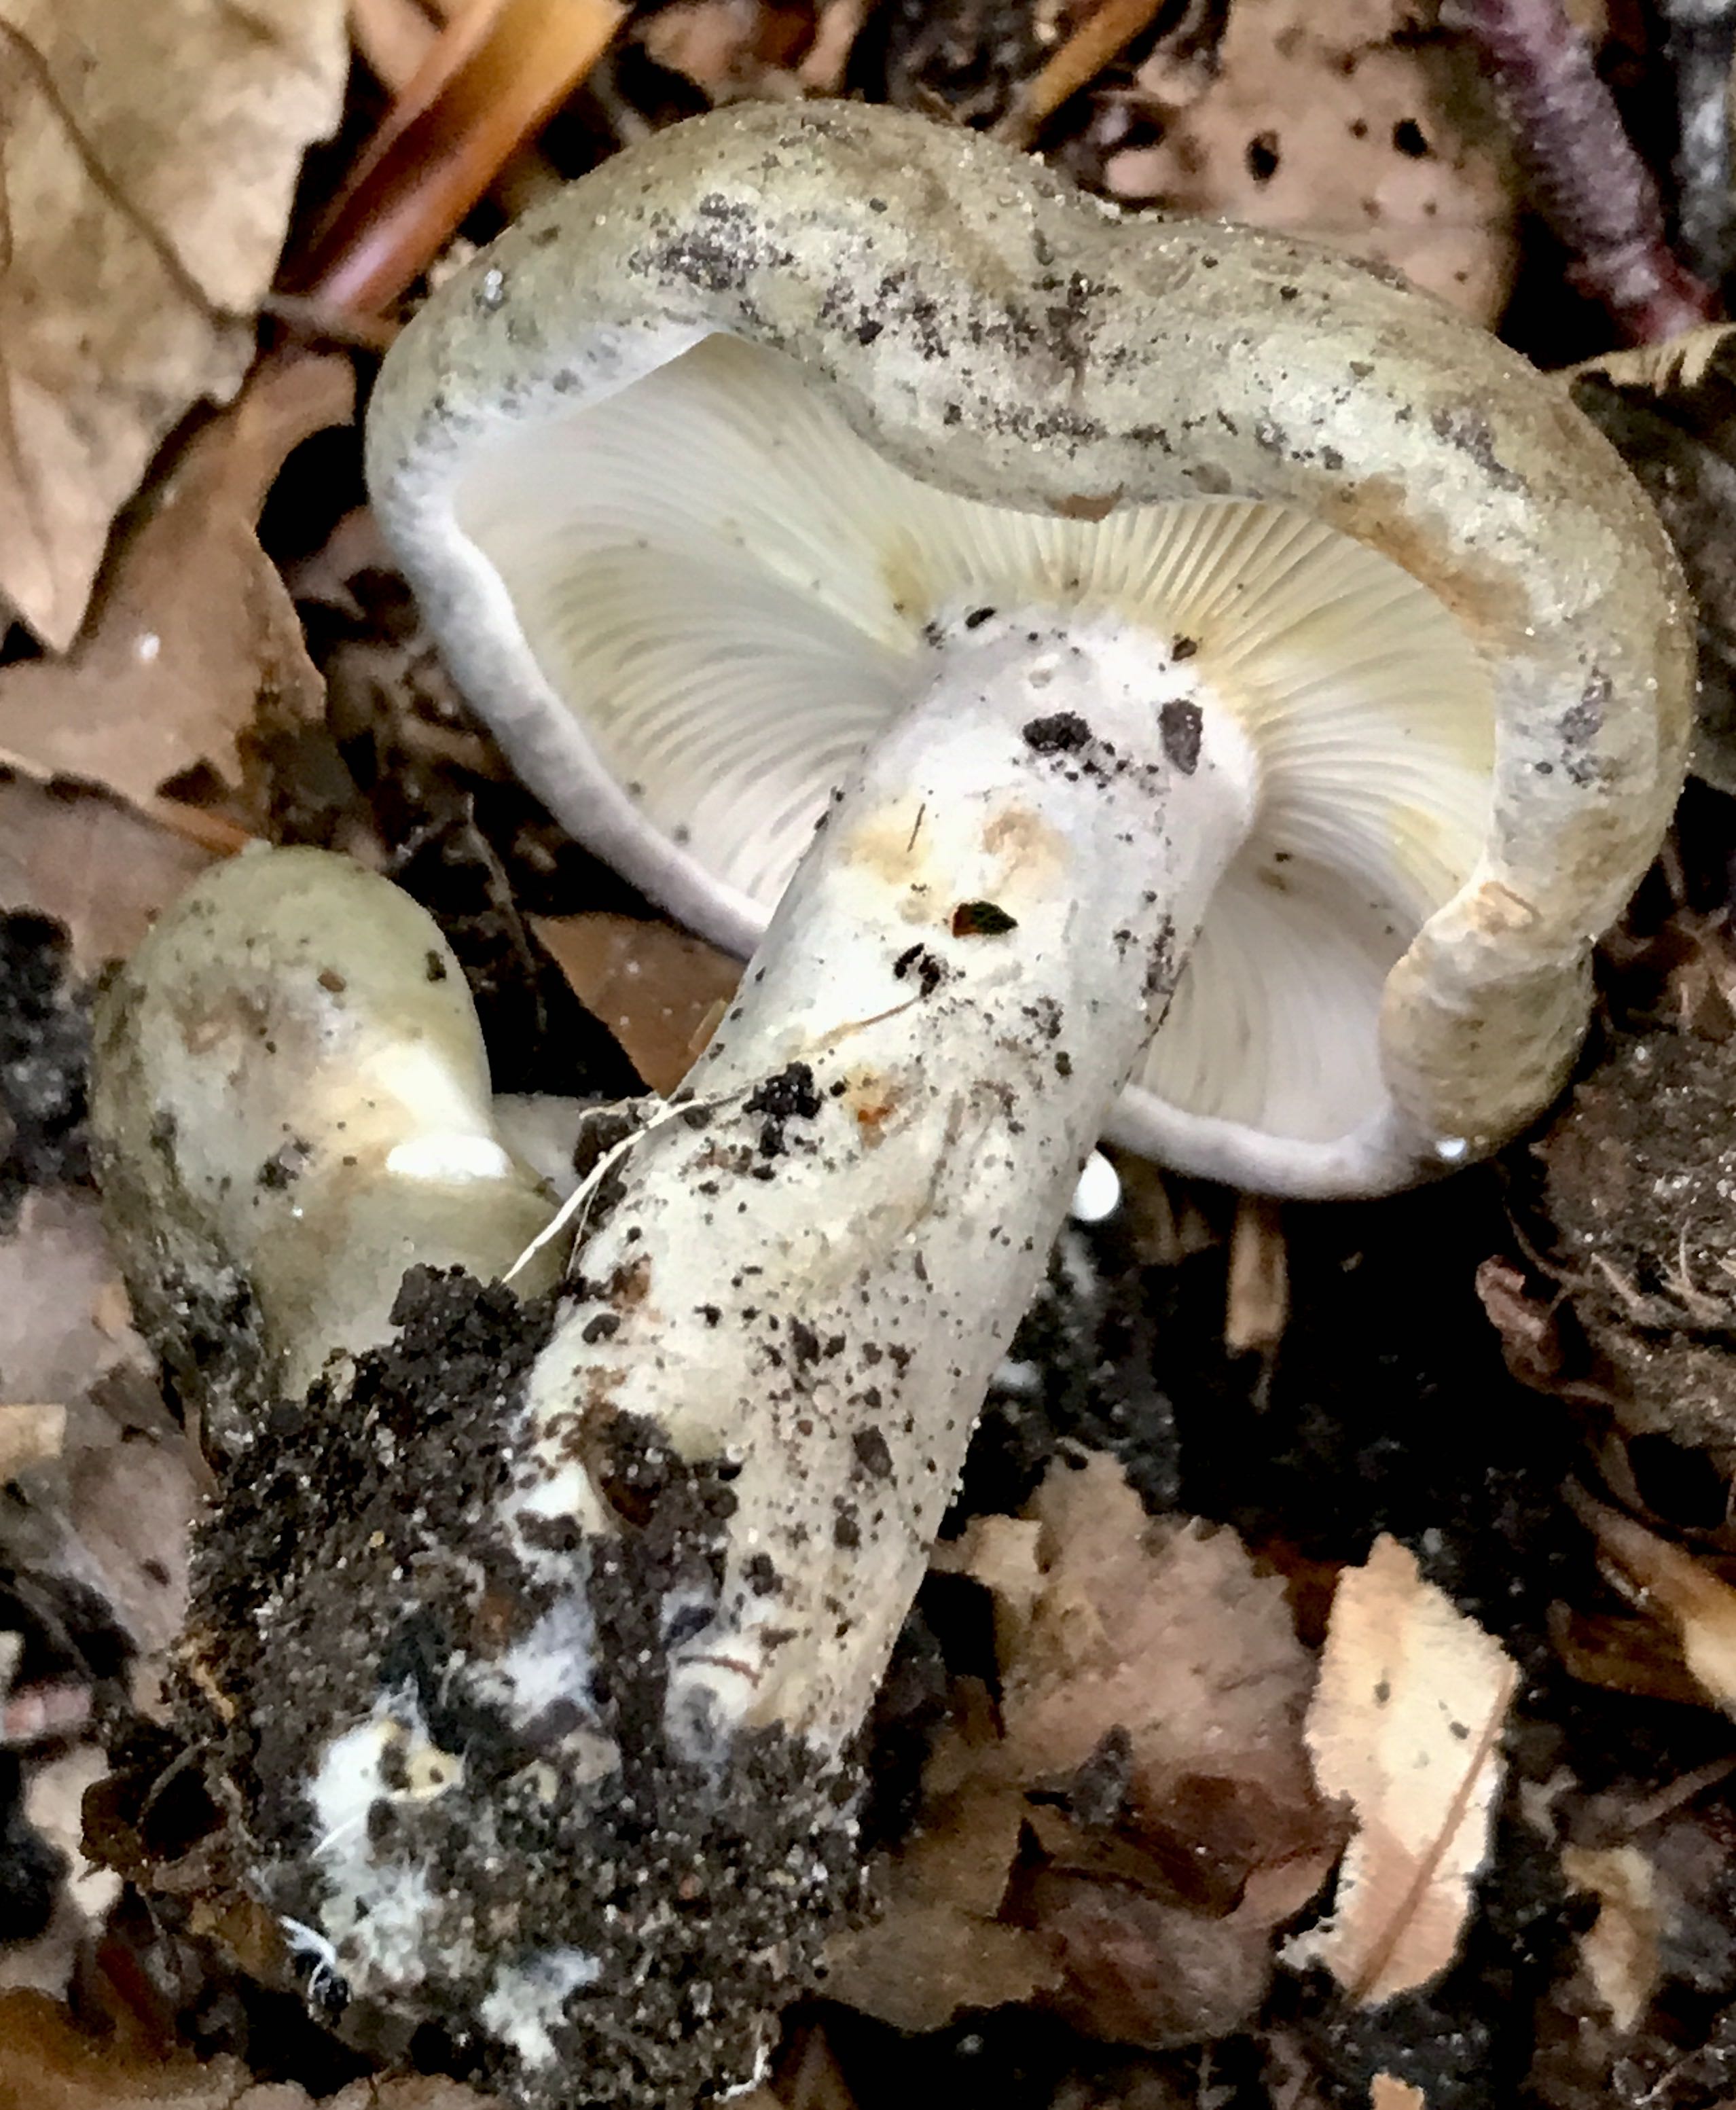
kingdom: Fungi
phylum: Basidiomycota
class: Agaricomycetes
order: Russulales
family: Russulaceae
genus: Lactarius
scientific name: Lactarius blennius
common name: dråbeplettet mælkehat
